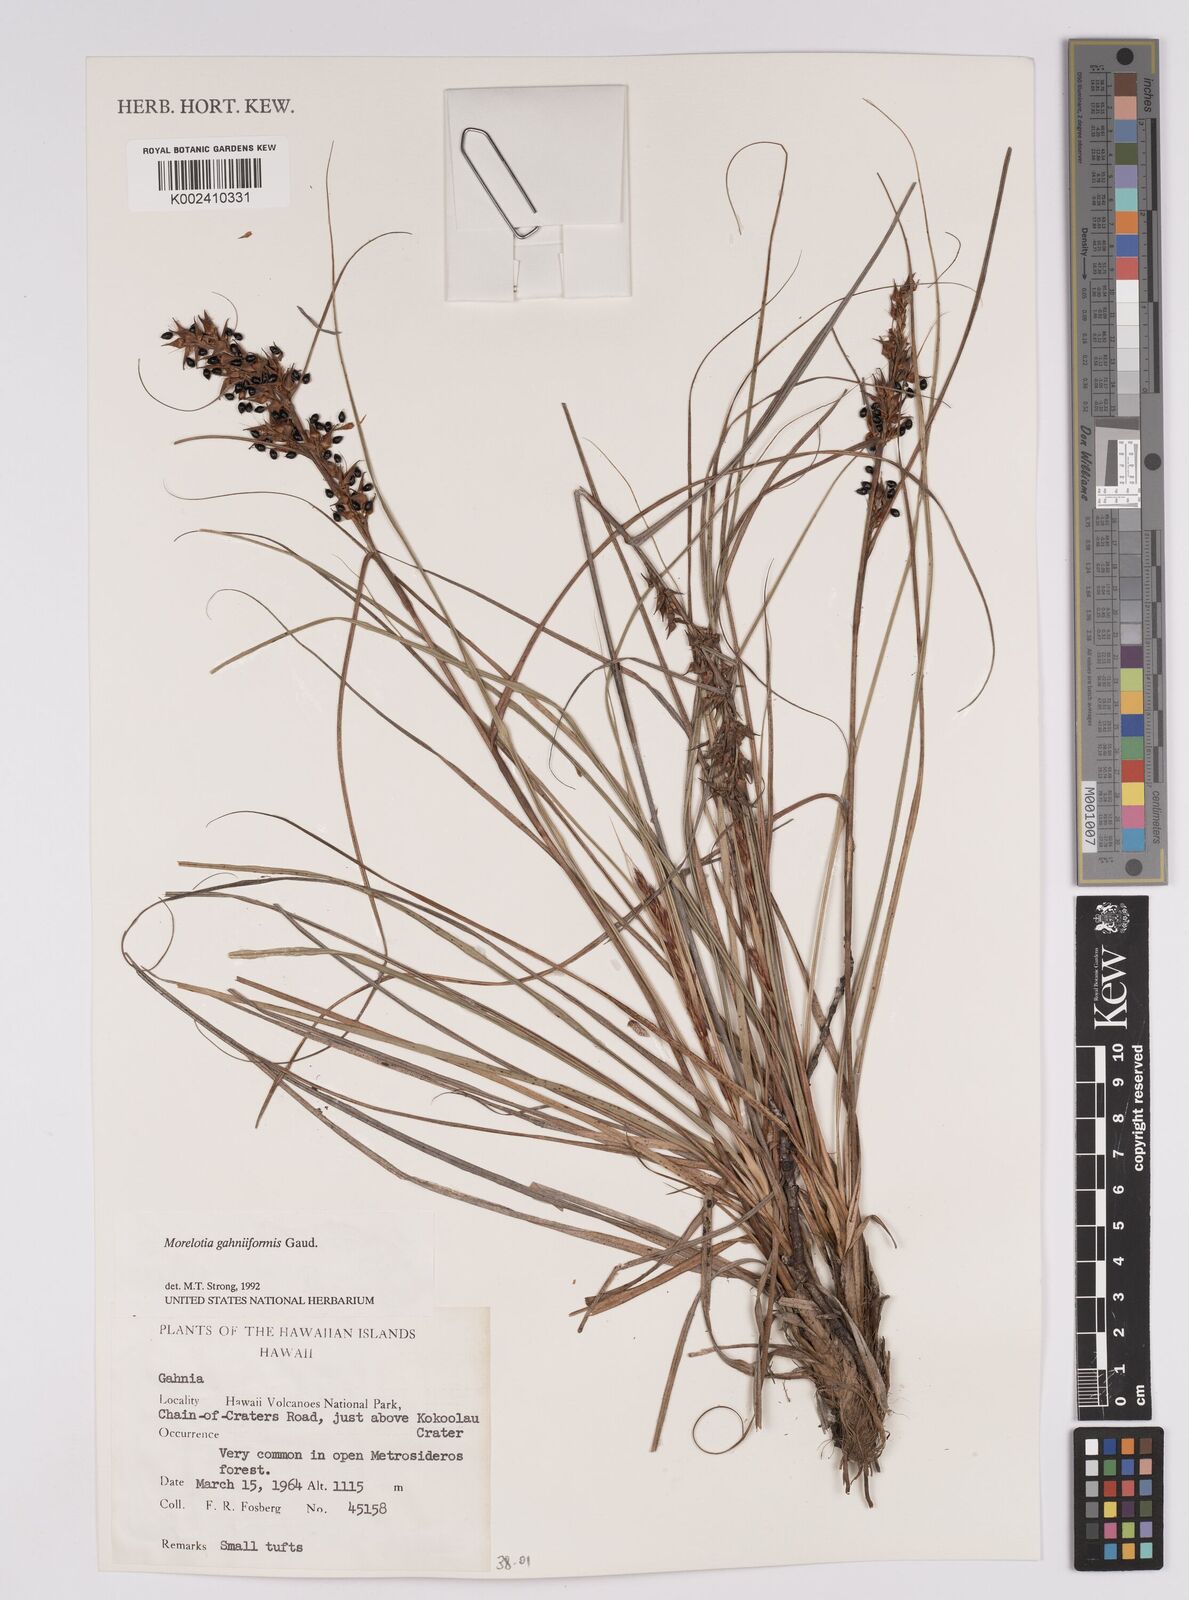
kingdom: Plantae
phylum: Tracheophyta
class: Liliopsida
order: Poales
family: Cyperaceae
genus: Morelotia
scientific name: Morelotia gahniiformis
